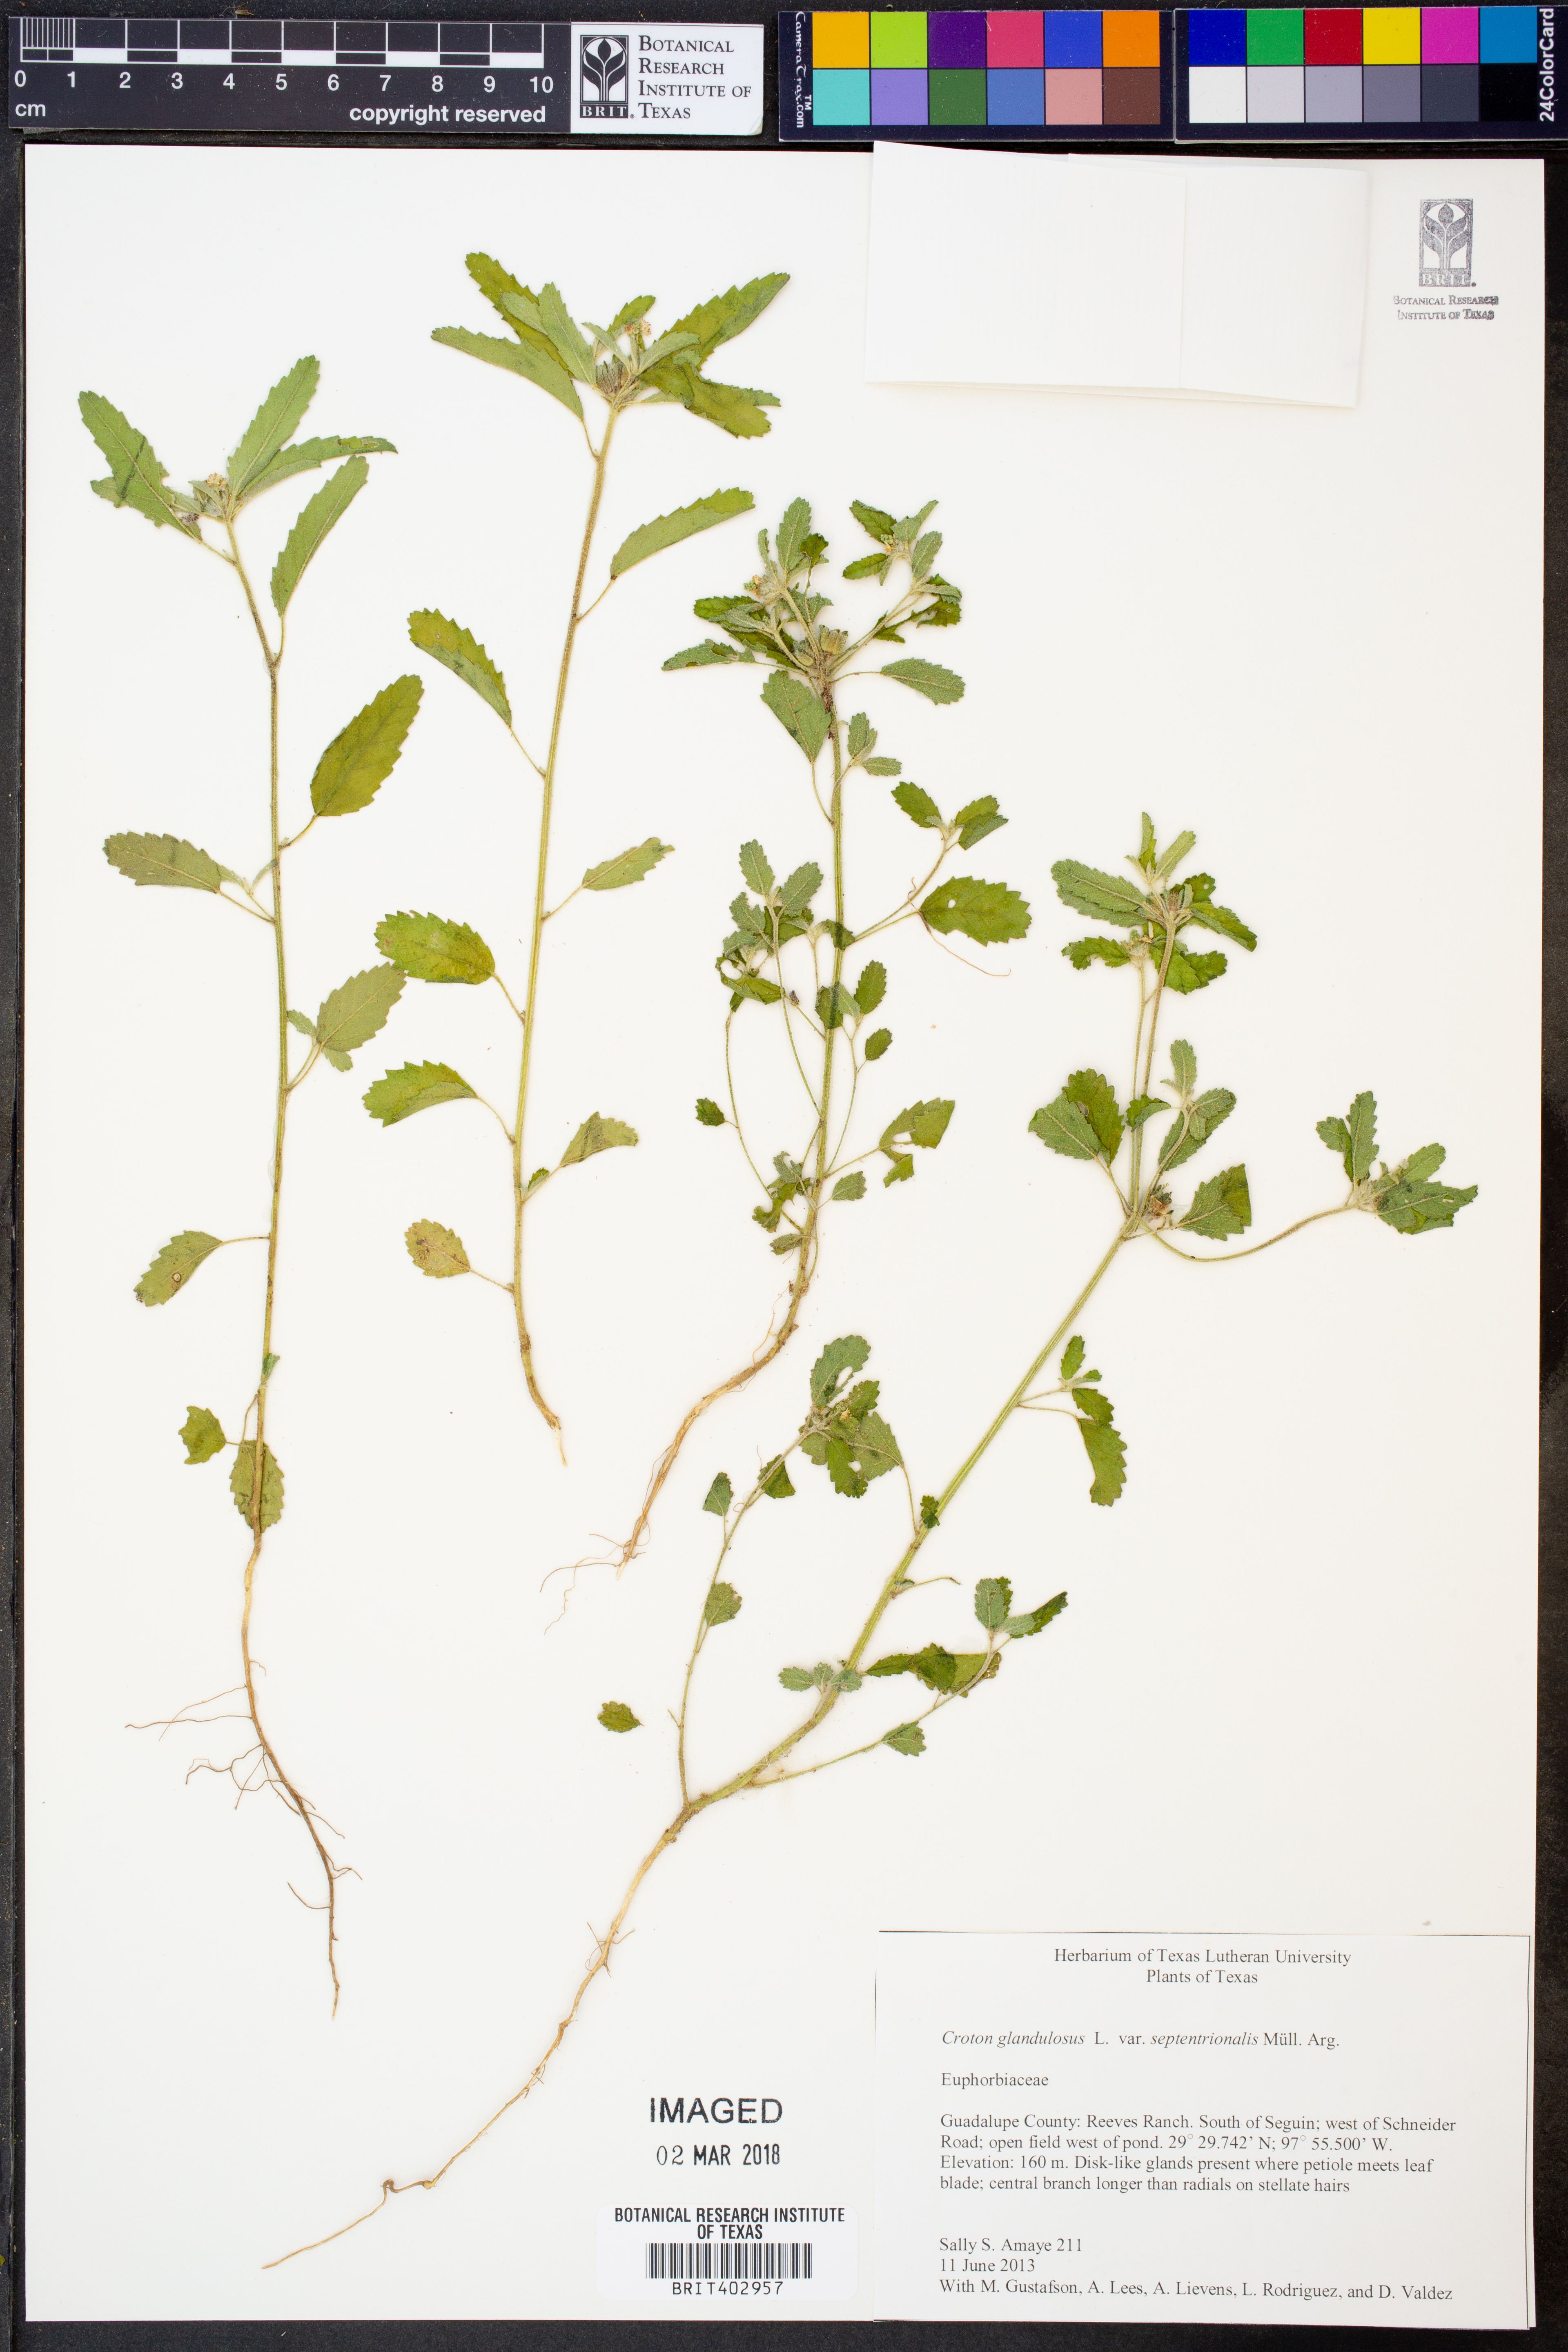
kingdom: Plantae
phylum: Tracheophyta
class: Magnoliopsida
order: Malpighiales
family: Euphorbiaceae
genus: Croton
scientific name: Croton glandulosus
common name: Tropic croton
